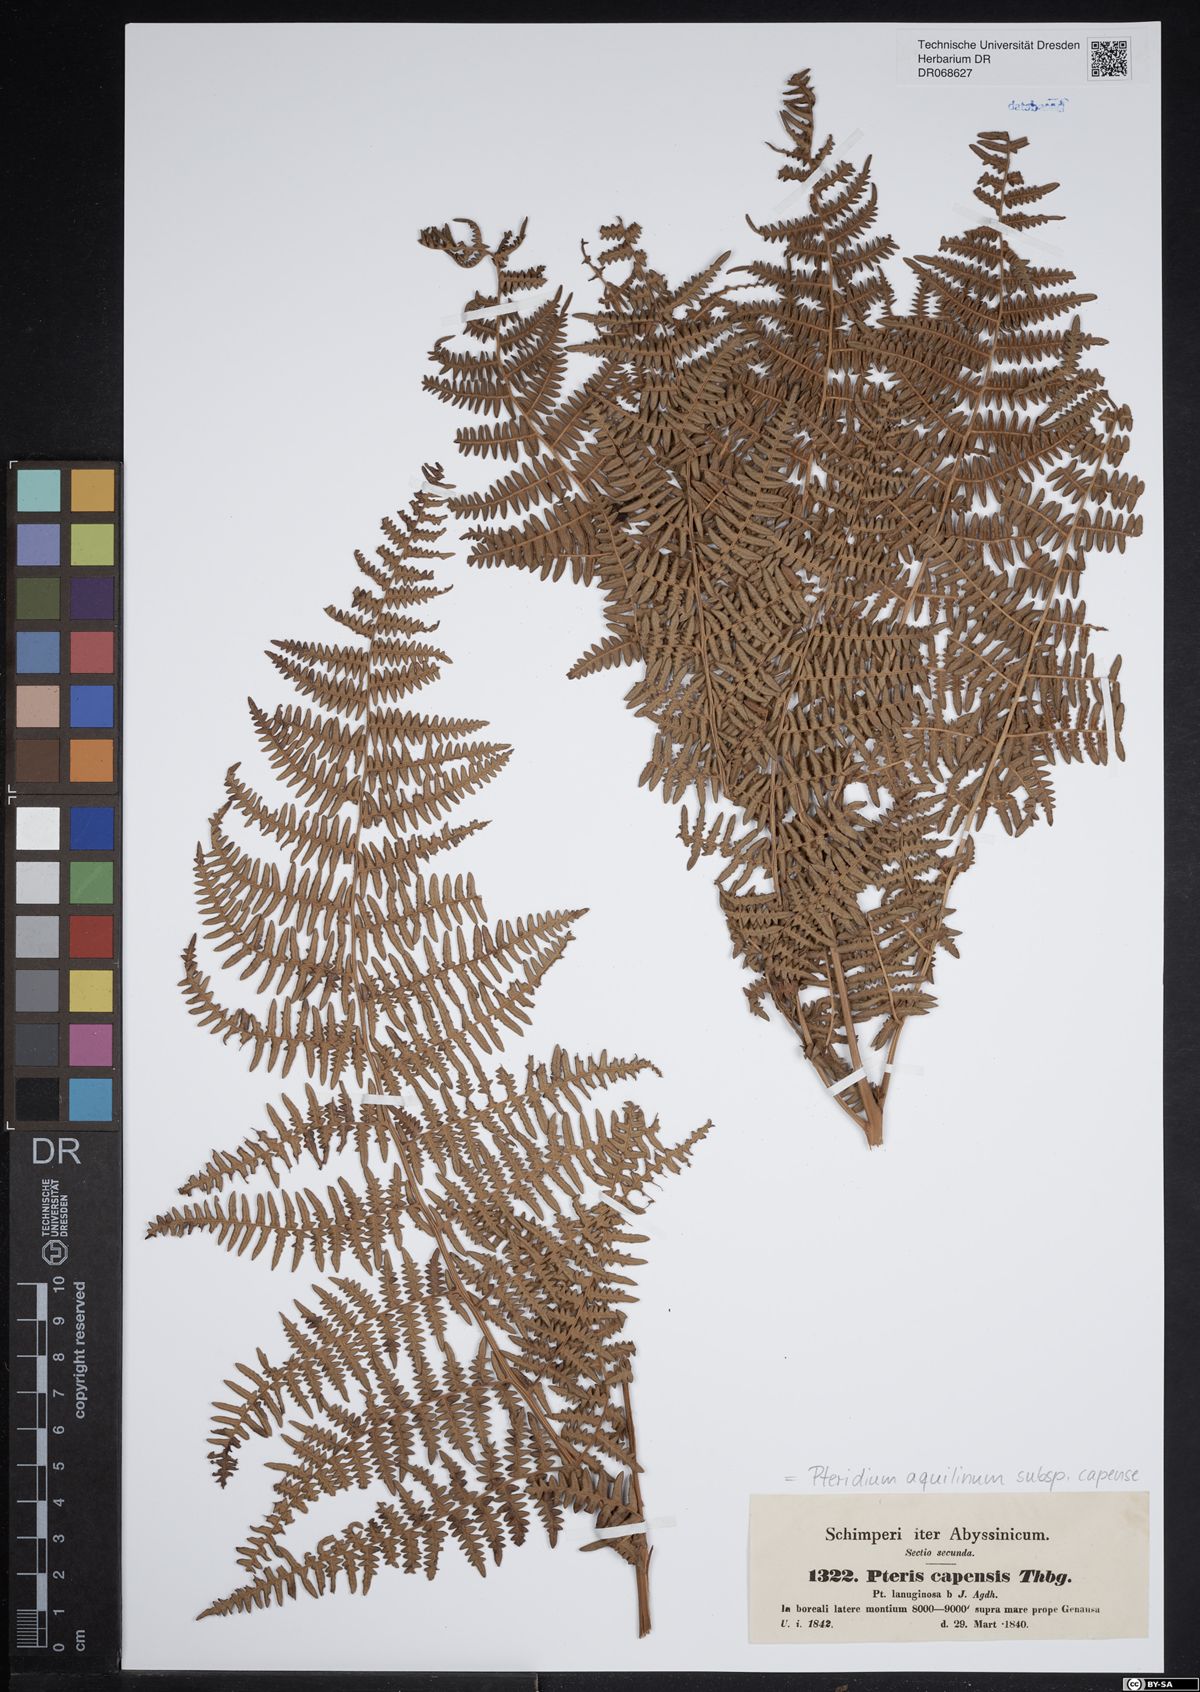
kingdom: Plantae
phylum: Tracheophyta
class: Polypodiopsida
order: Polypodiales
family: Dennstaedtiaceae
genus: Pteridium
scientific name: Pteridium aquilinum
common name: Bracken
